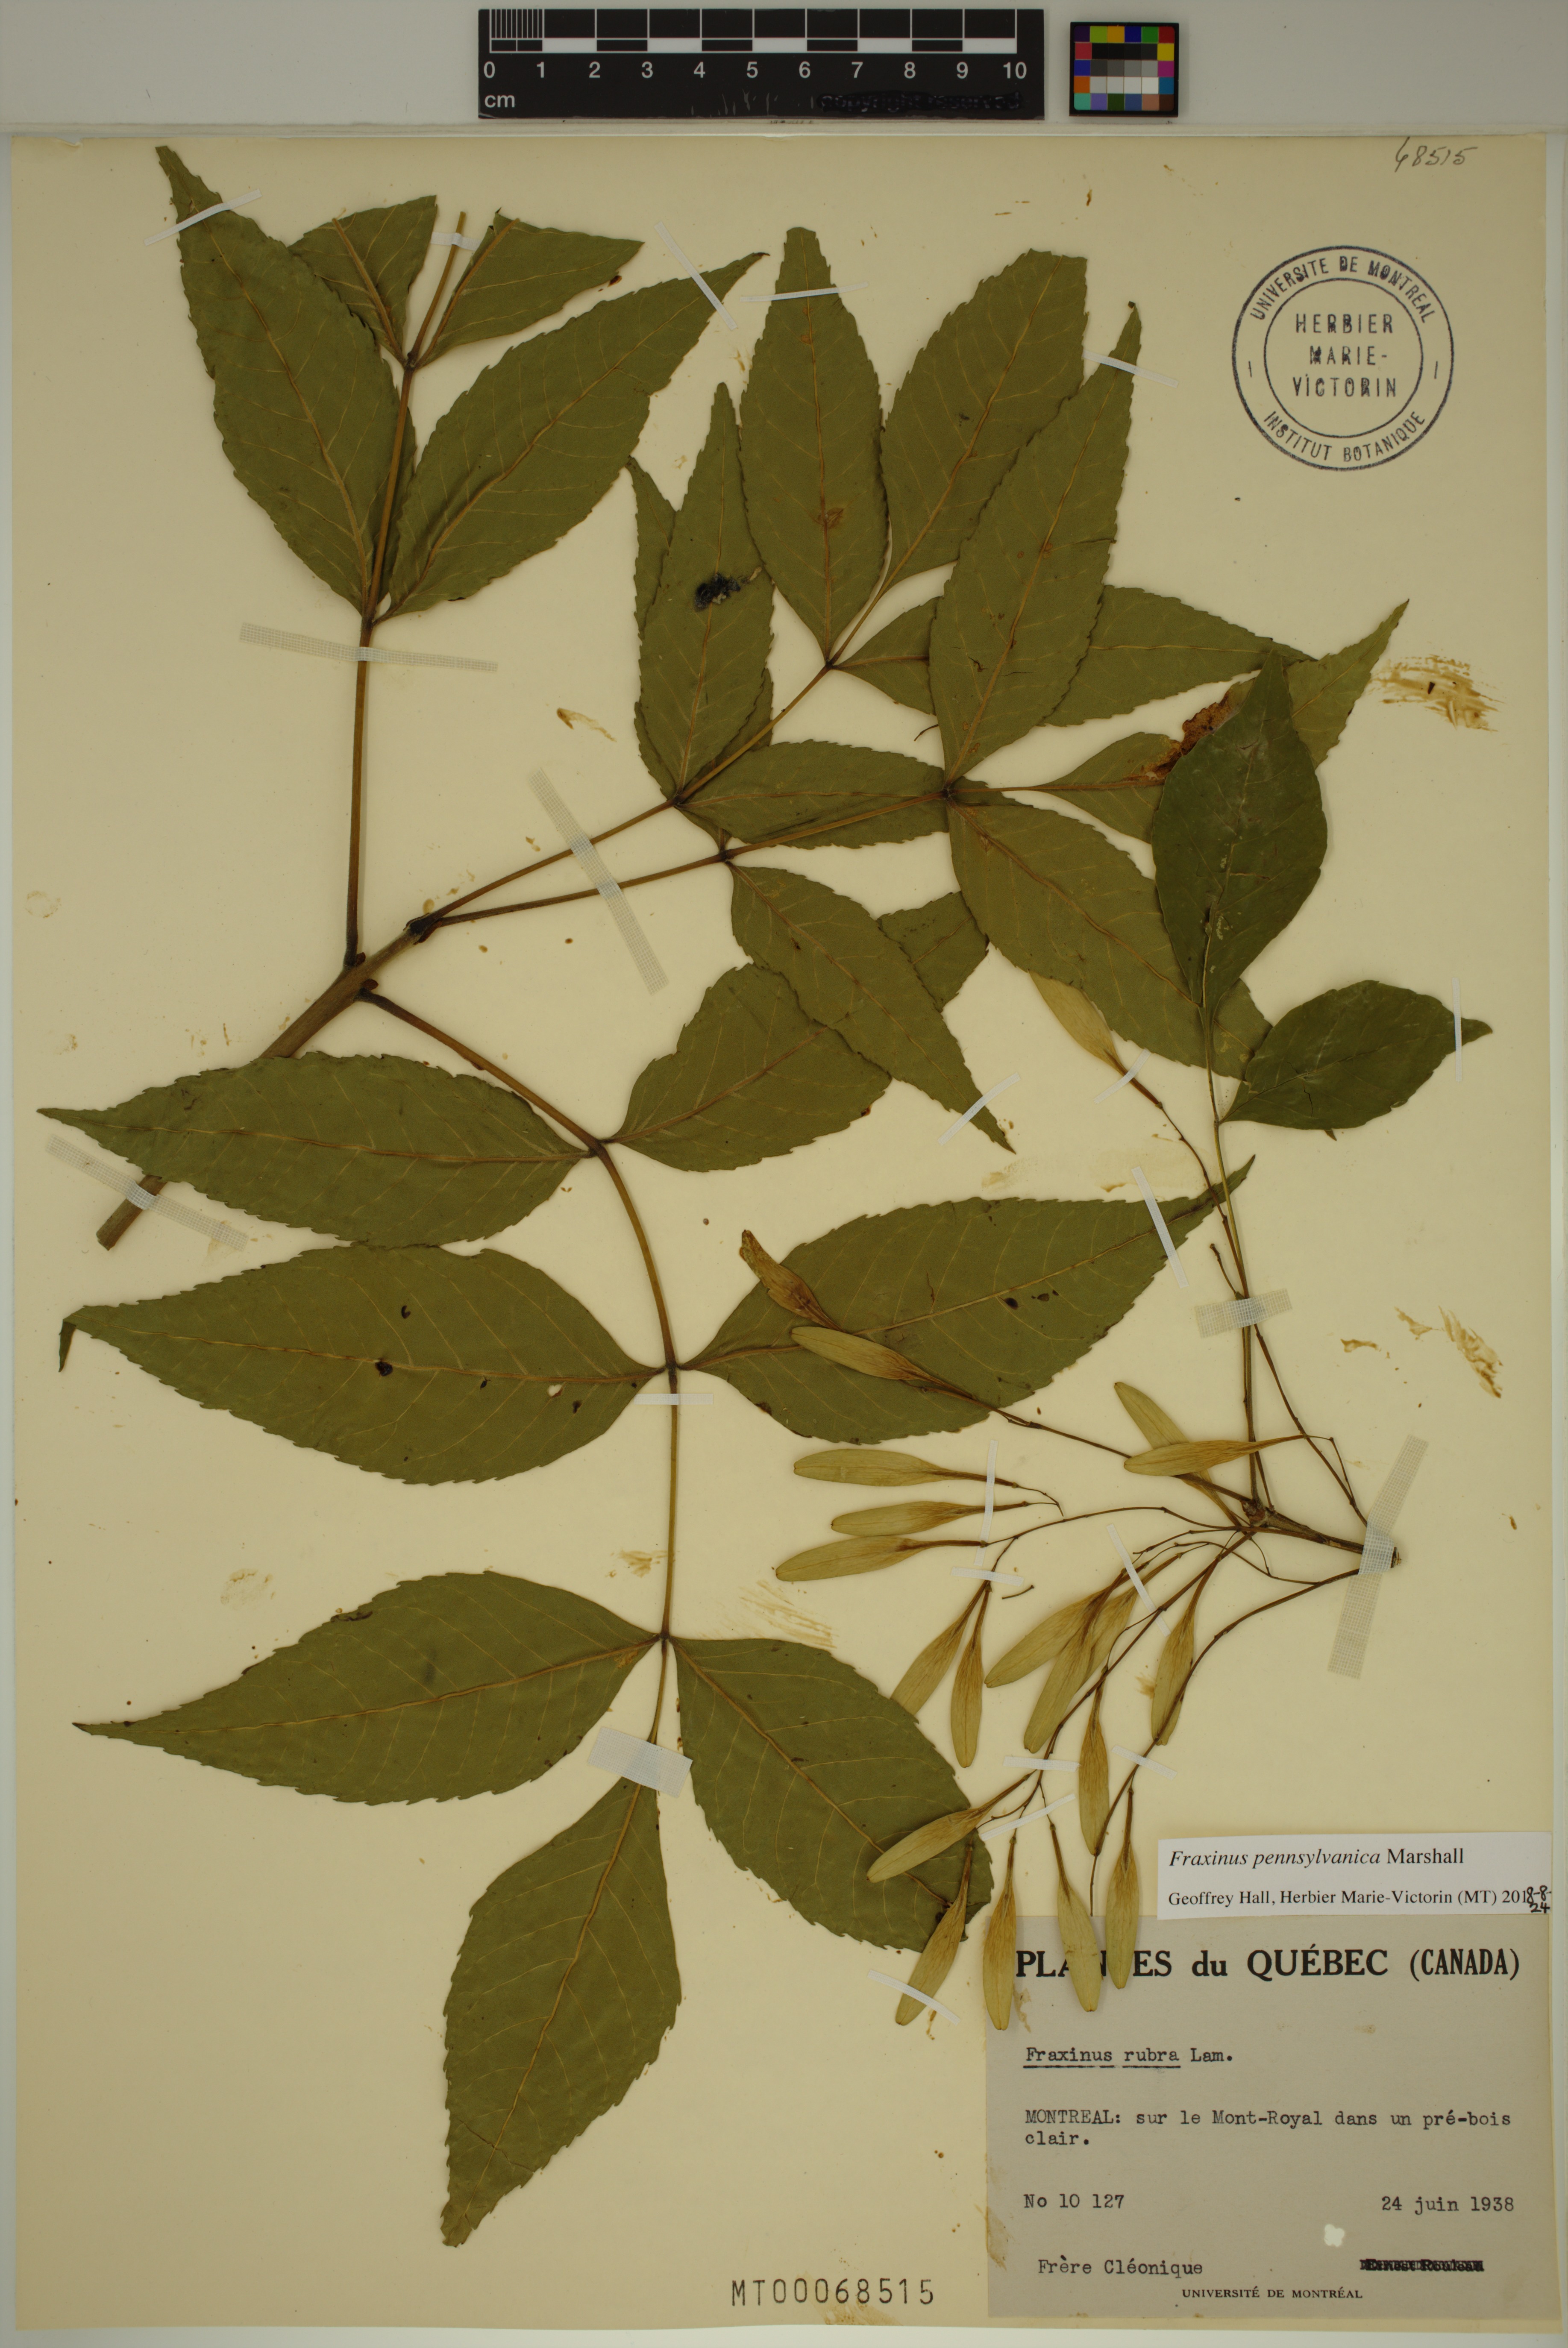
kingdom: Plantae
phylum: Tracheophyta
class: Magnoliopsida
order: Lamiales
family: Oleaceae
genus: Fraxinus
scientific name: Fraxinus pennsylvanica
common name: Green ash
